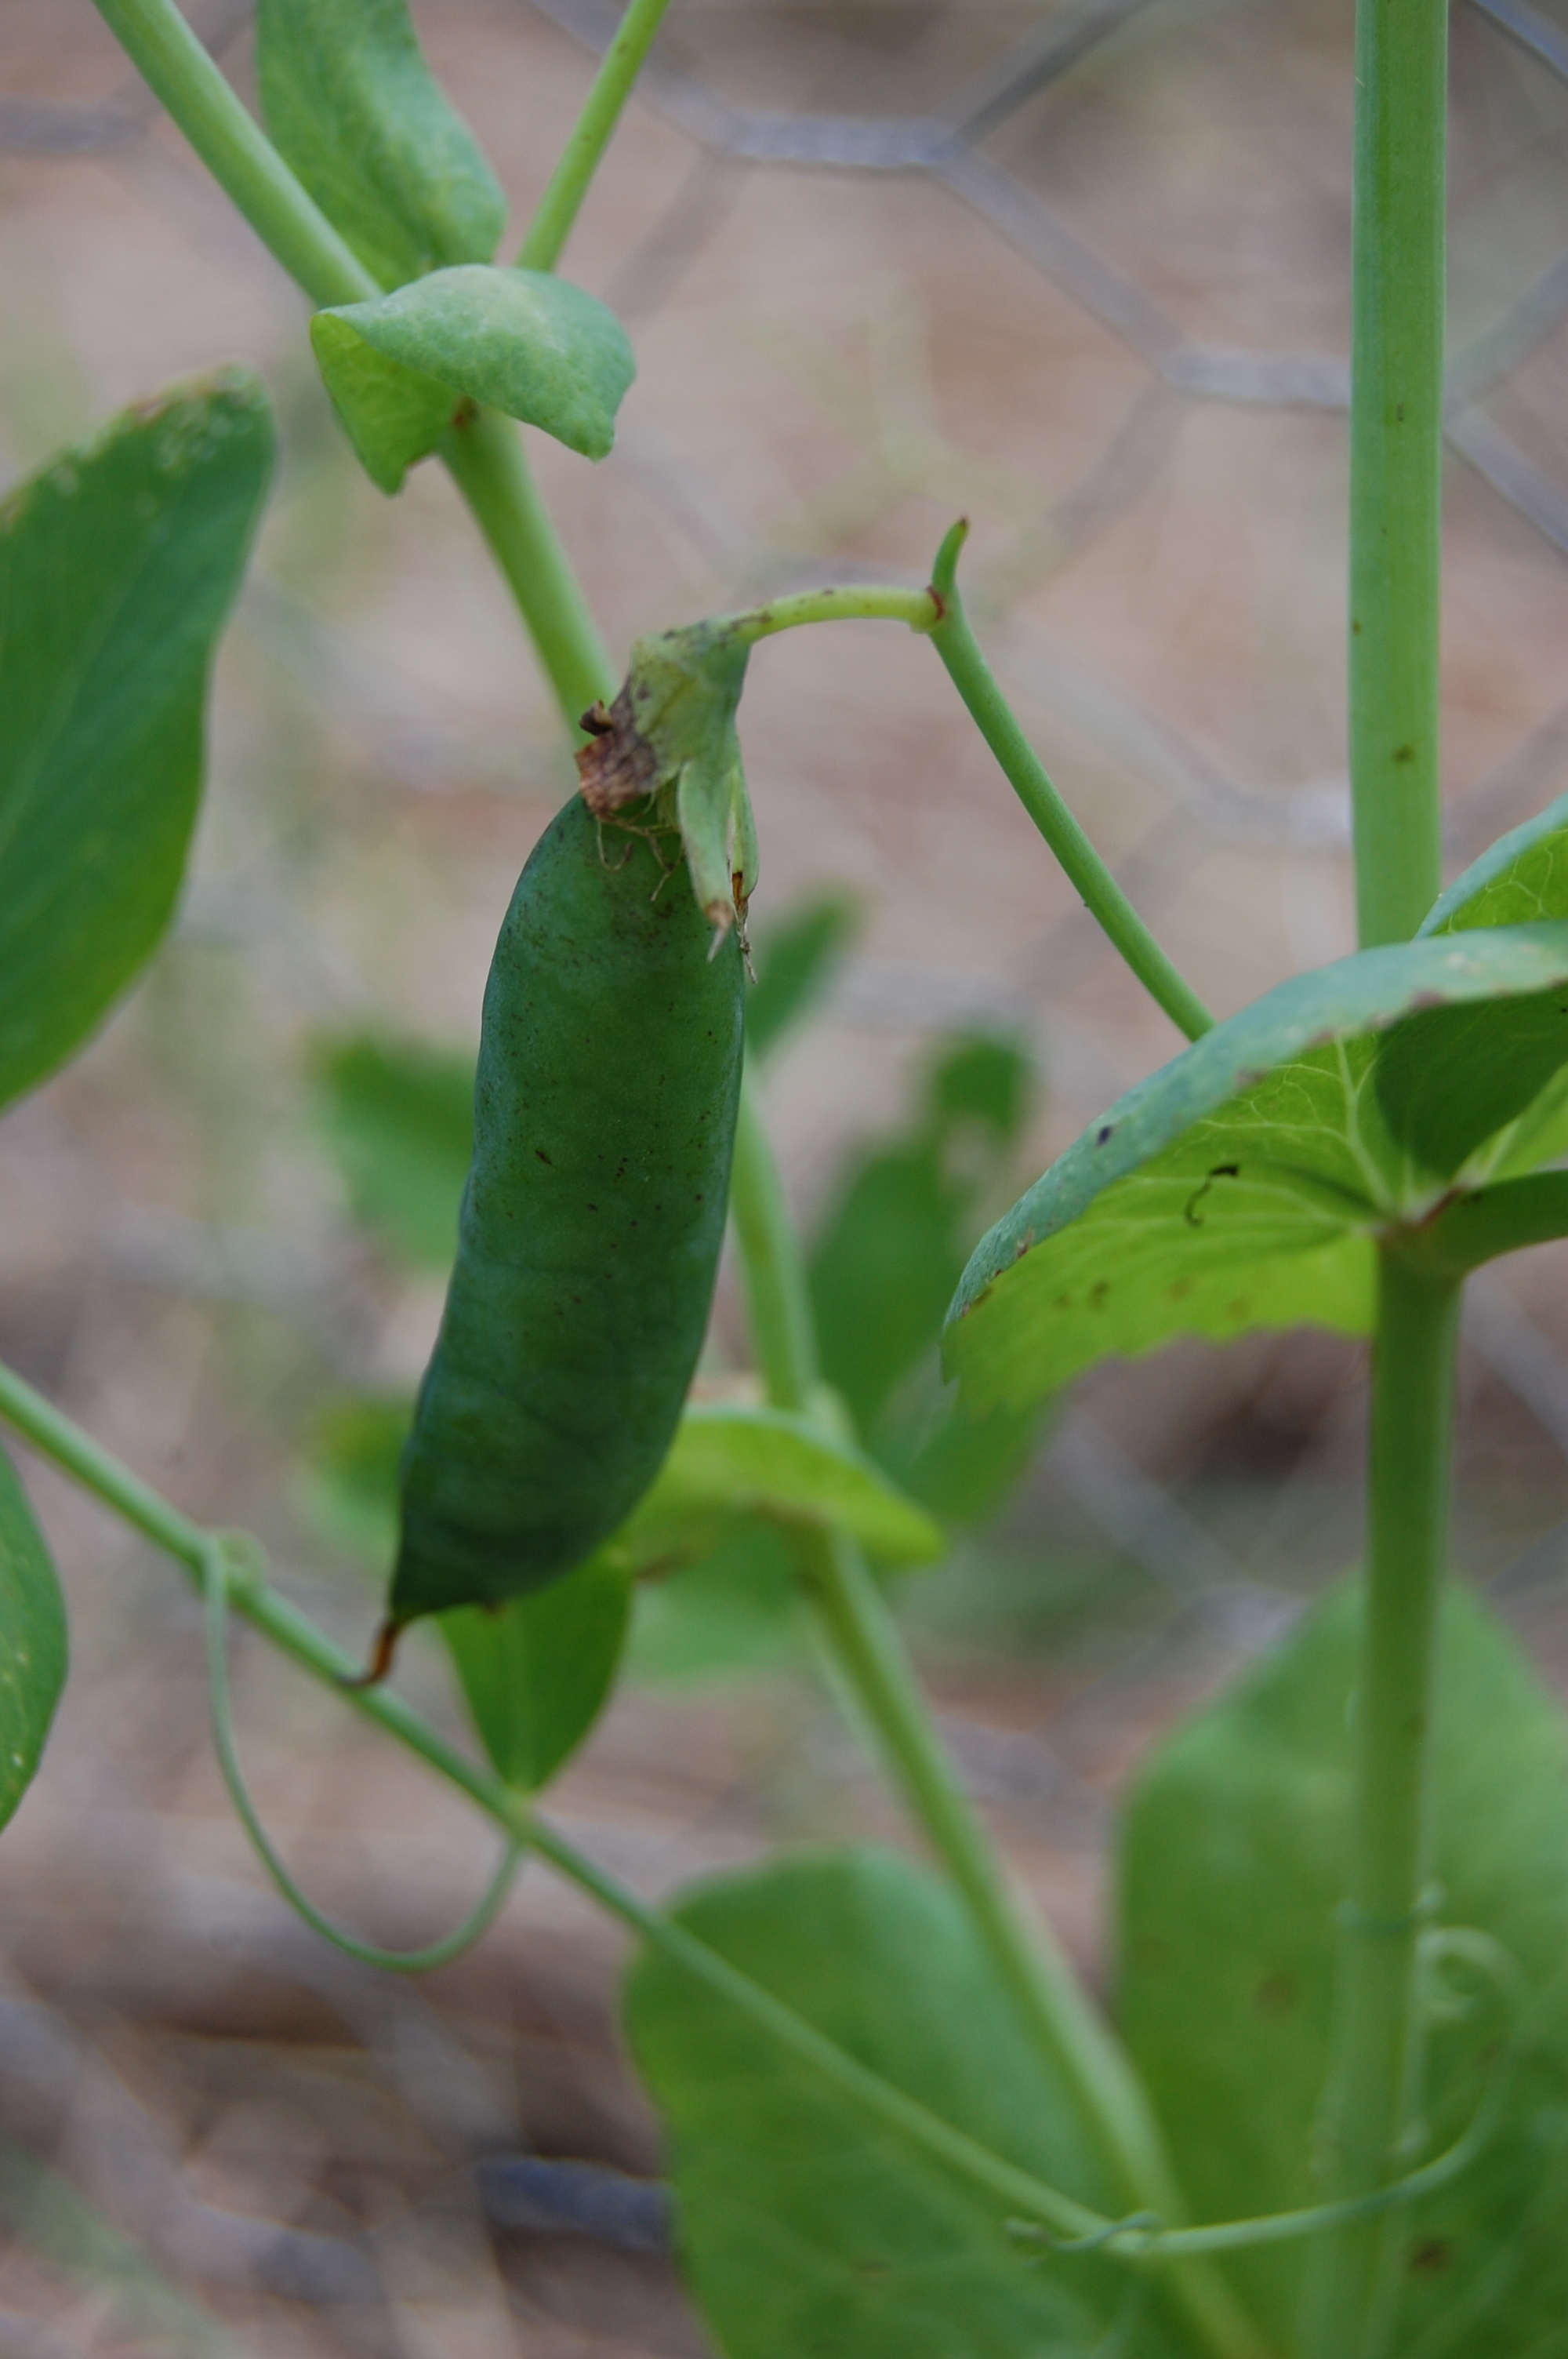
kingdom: Plantae
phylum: Tracheophyta
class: Magnoliopsida
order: Fabales
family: Fabaceae
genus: Lathyrus
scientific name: Lathyrus oleraceus
